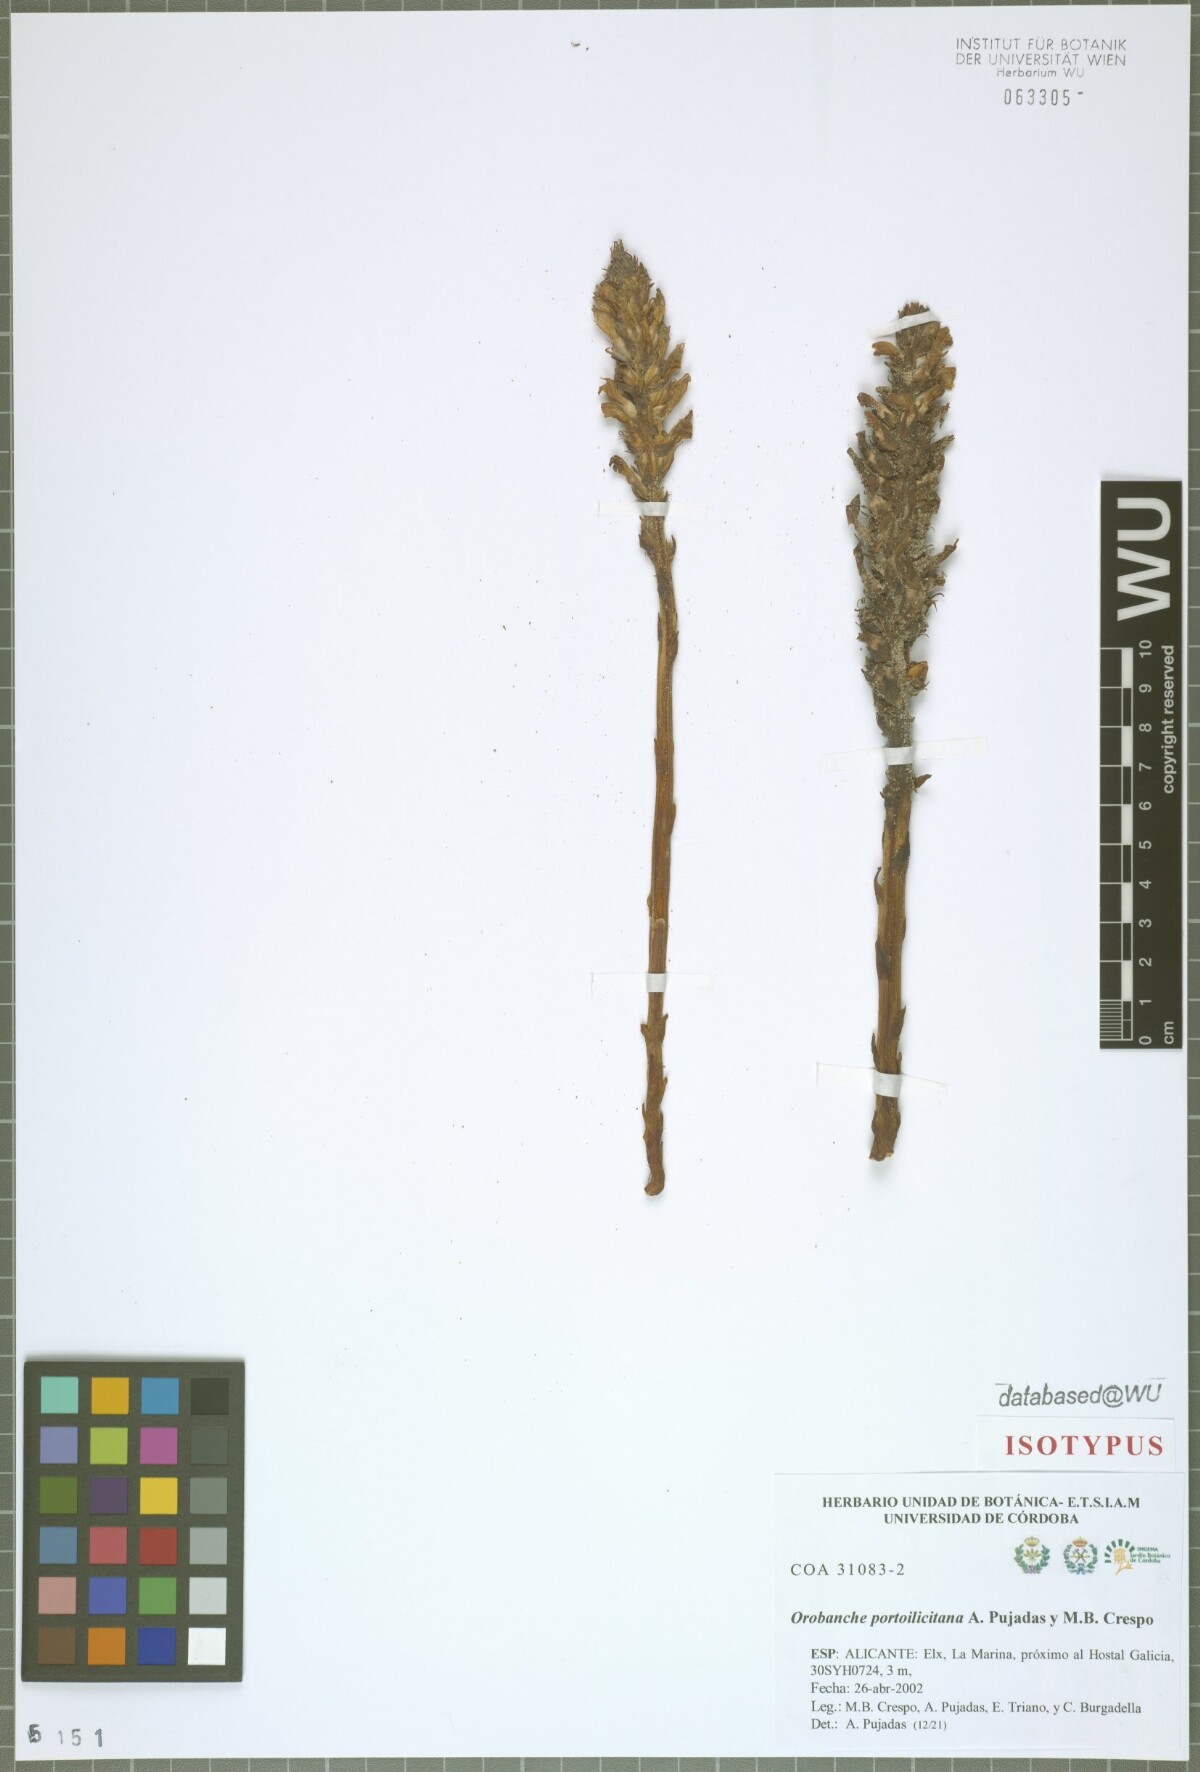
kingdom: Plantae
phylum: Tracheophyta
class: Magnoliopsida
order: Lamiales
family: Orobanchaceae
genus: Phelipanche
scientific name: Phelipanche portoilicitana
